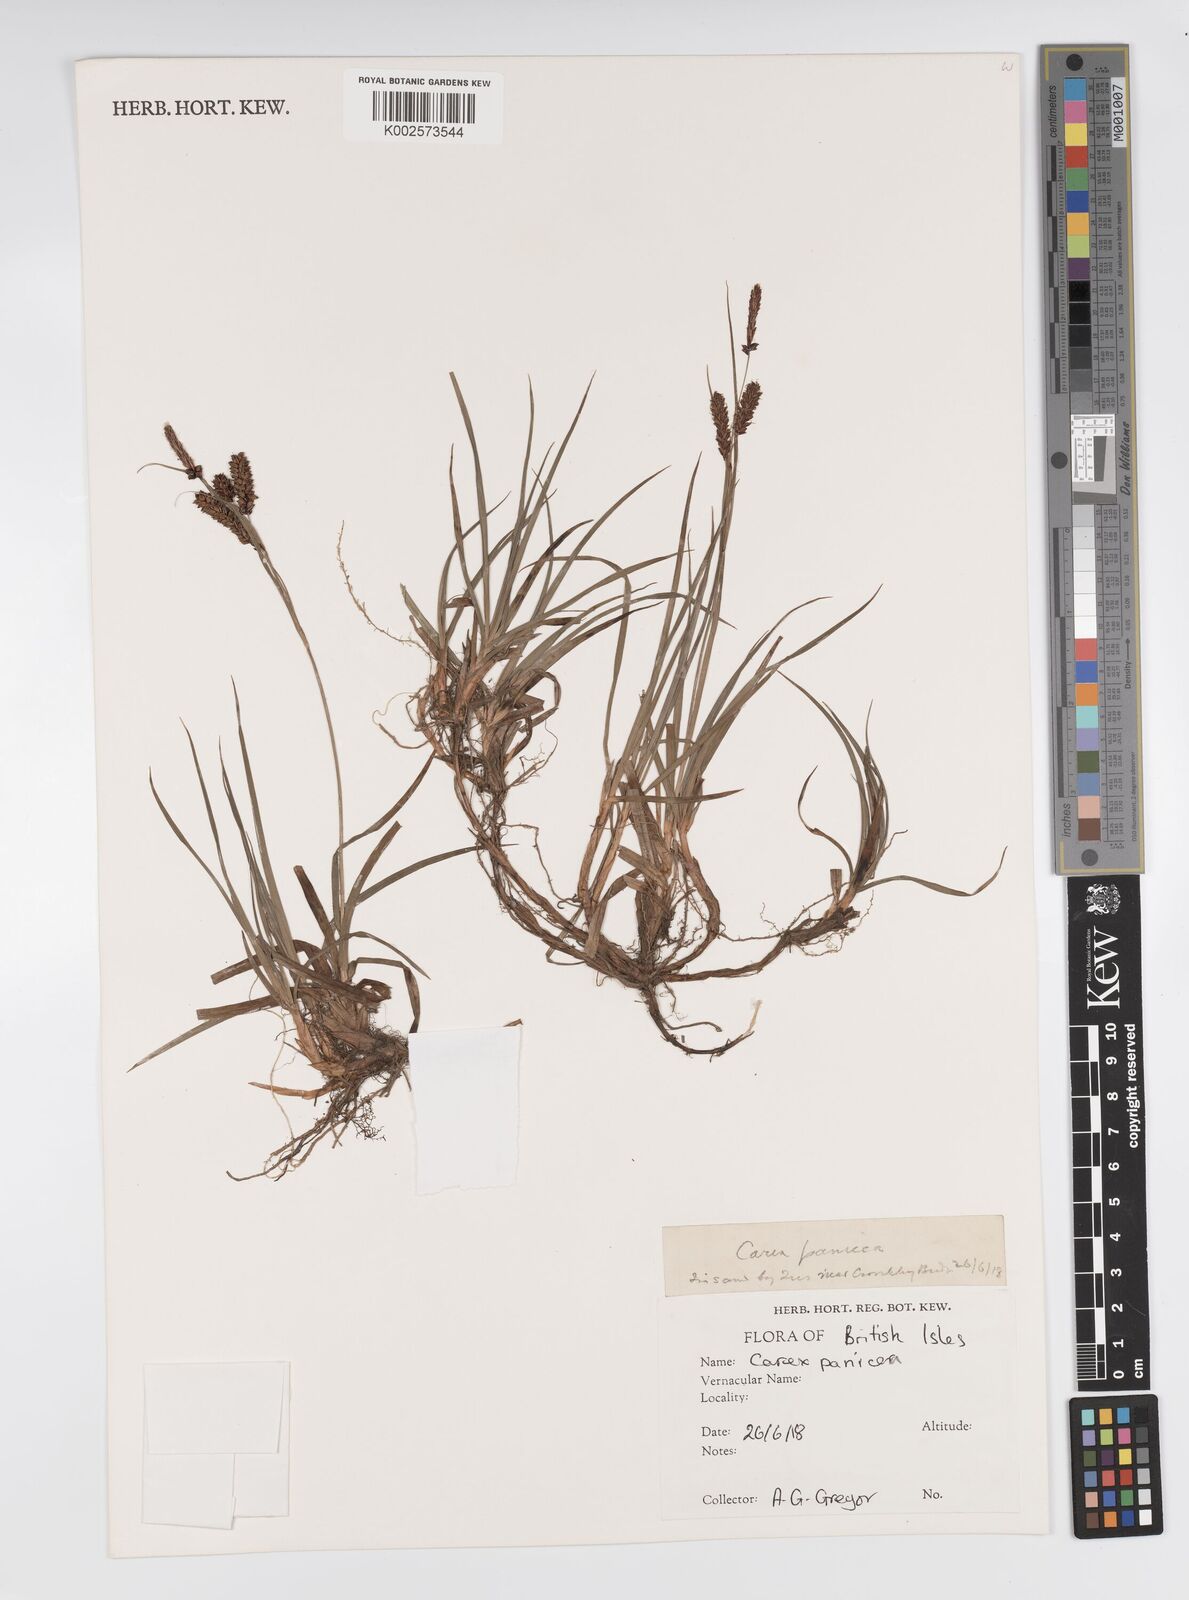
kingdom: Plantae
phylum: Tracheophyta
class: Liliopsida
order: Poales
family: Cyperaceae
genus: Carex
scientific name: Carex panicea
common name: Carnation sedge
